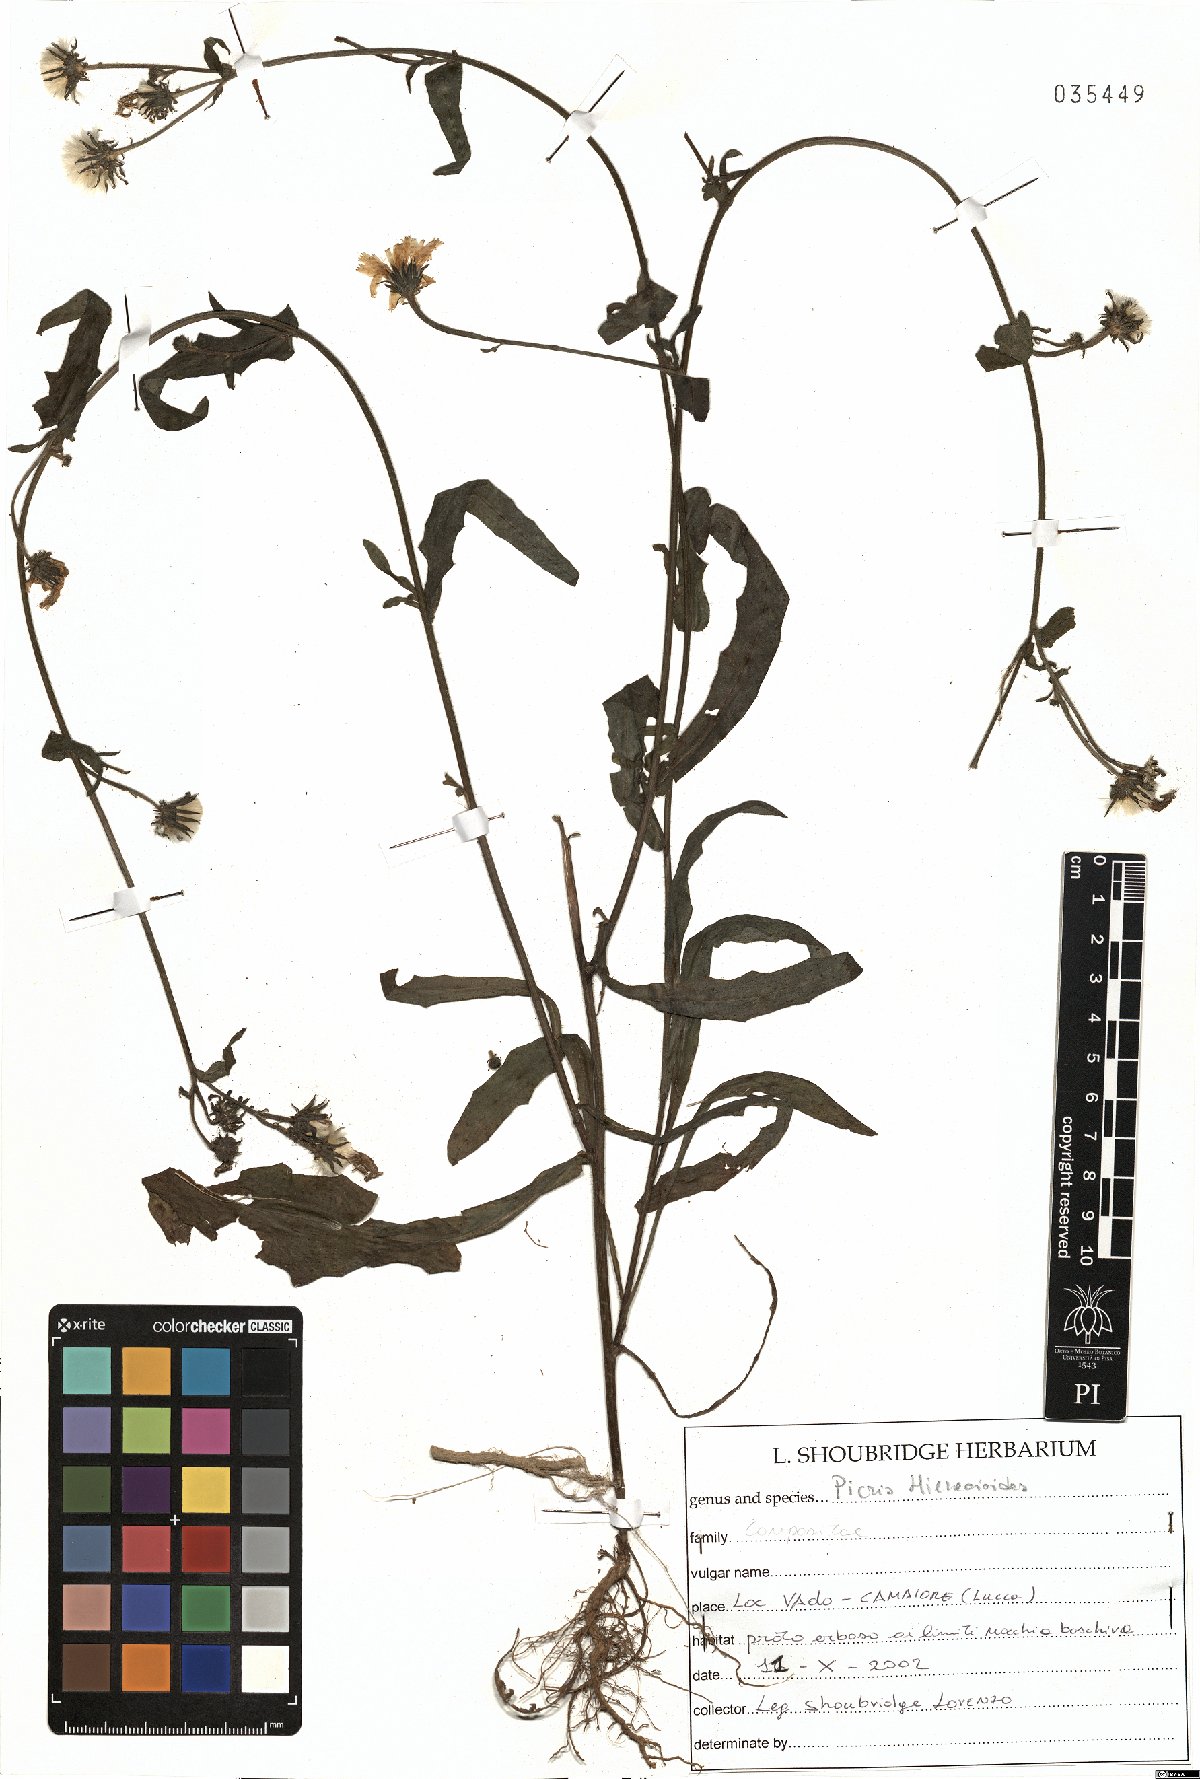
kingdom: Plantae
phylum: Tracheophyta
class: Magnoliopsida
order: Asterales
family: Asteraceae
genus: Picris
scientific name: Picris hieracioides
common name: Hawkweed oxtongue
